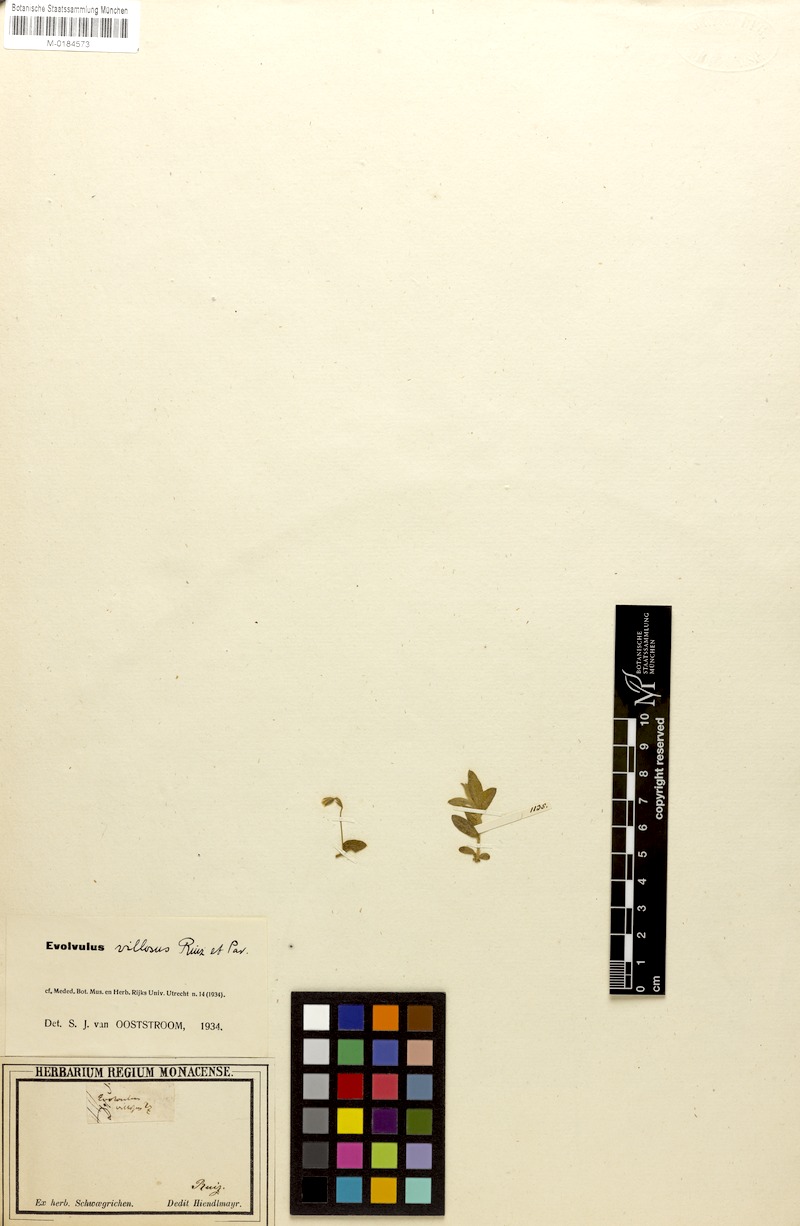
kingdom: Plantae
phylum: Tracheophyta
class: Magnoliopsida
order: Solanales
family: Convolvulaceae
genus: Evolvulus
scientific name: Evolvulus villosus
